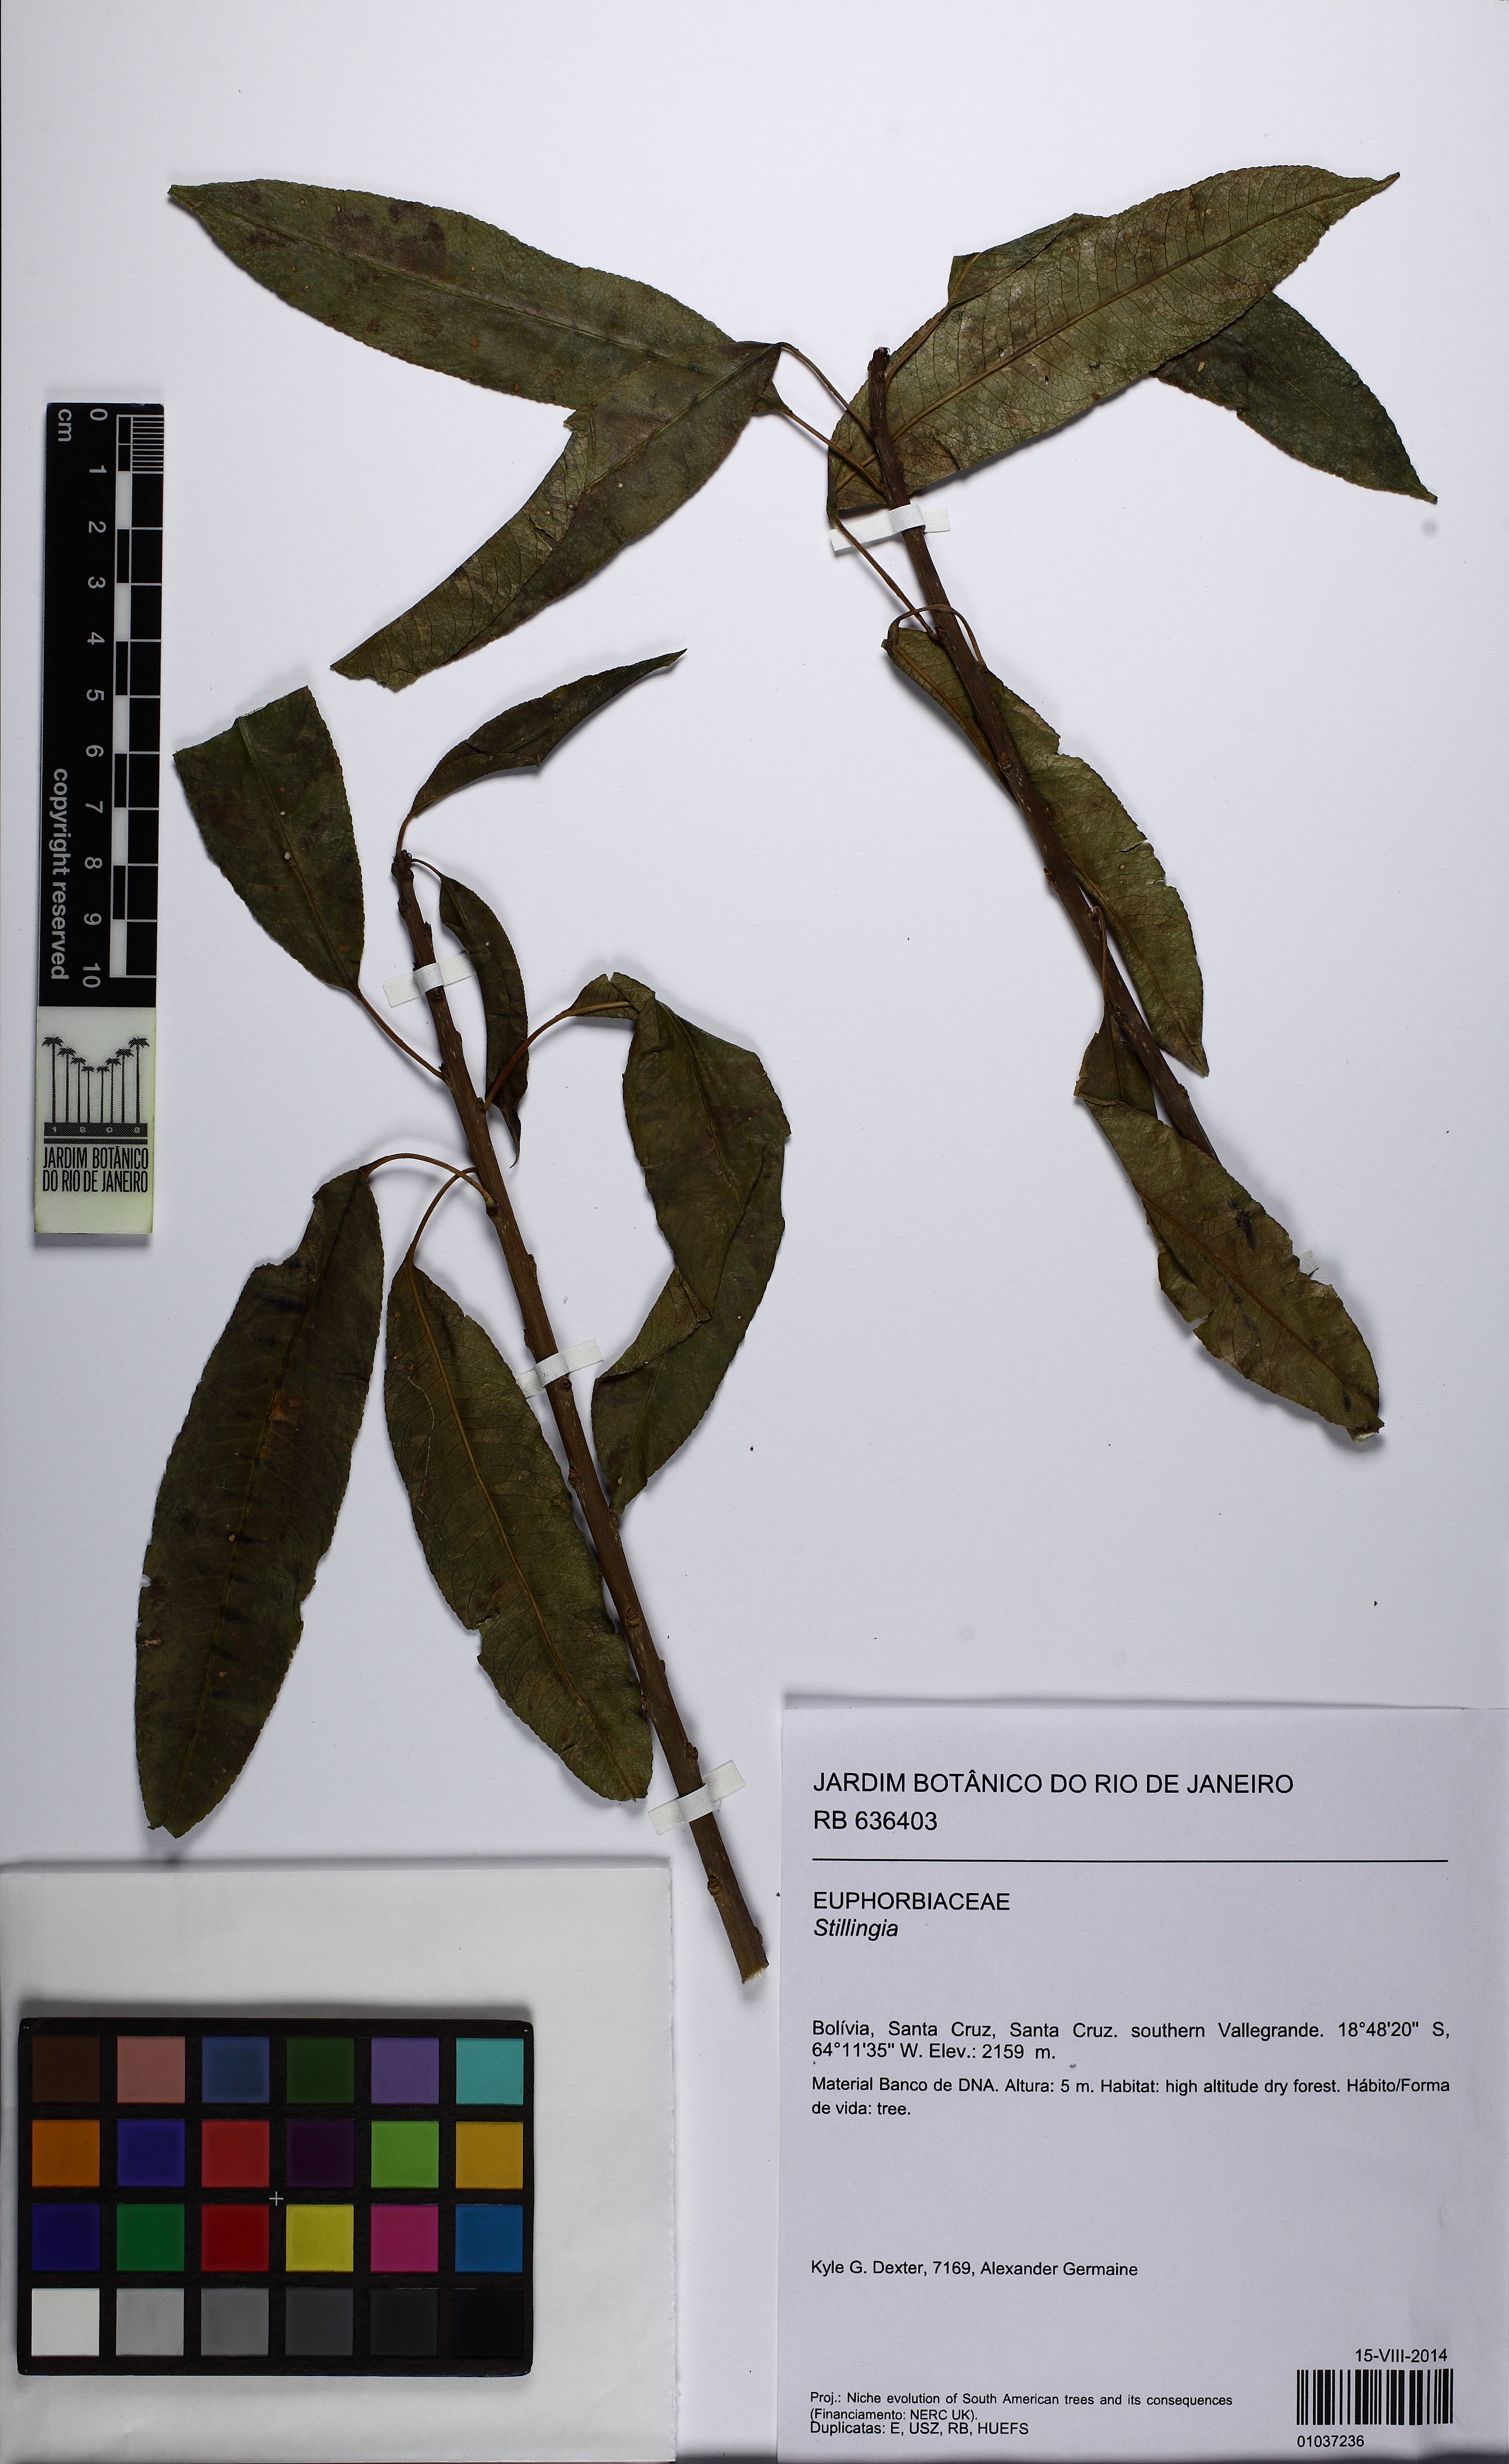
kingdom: Plantae
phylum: Tracheophyta
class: Magnoliopsida
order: Malpighiales
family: Euphorbiaceae
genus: Stillingia
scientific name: Stillingia
